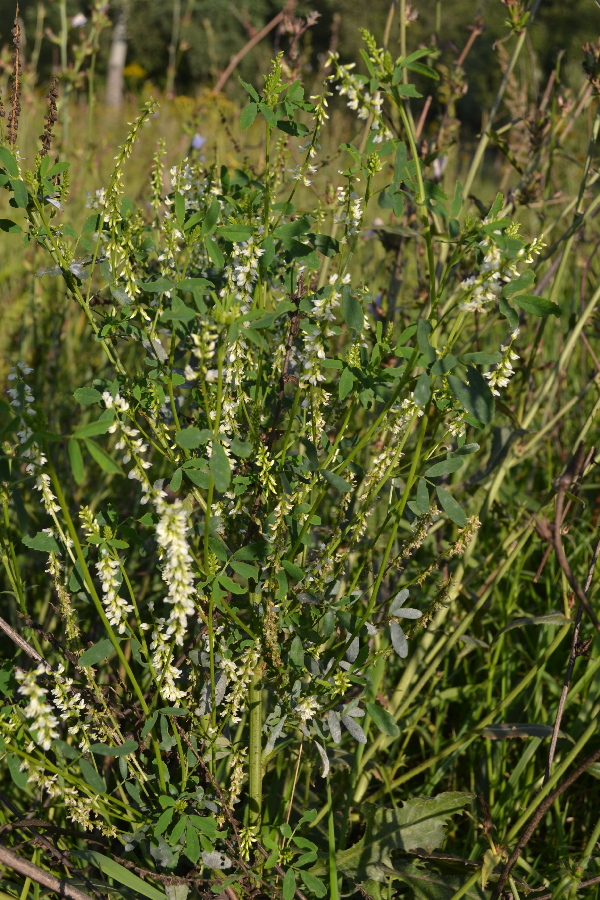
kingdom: Plantae
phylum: Tracheophyta
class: Magnoliopsida
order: Fabales
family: Fabaceae
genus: Melilotus
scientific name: Melilotus albus
